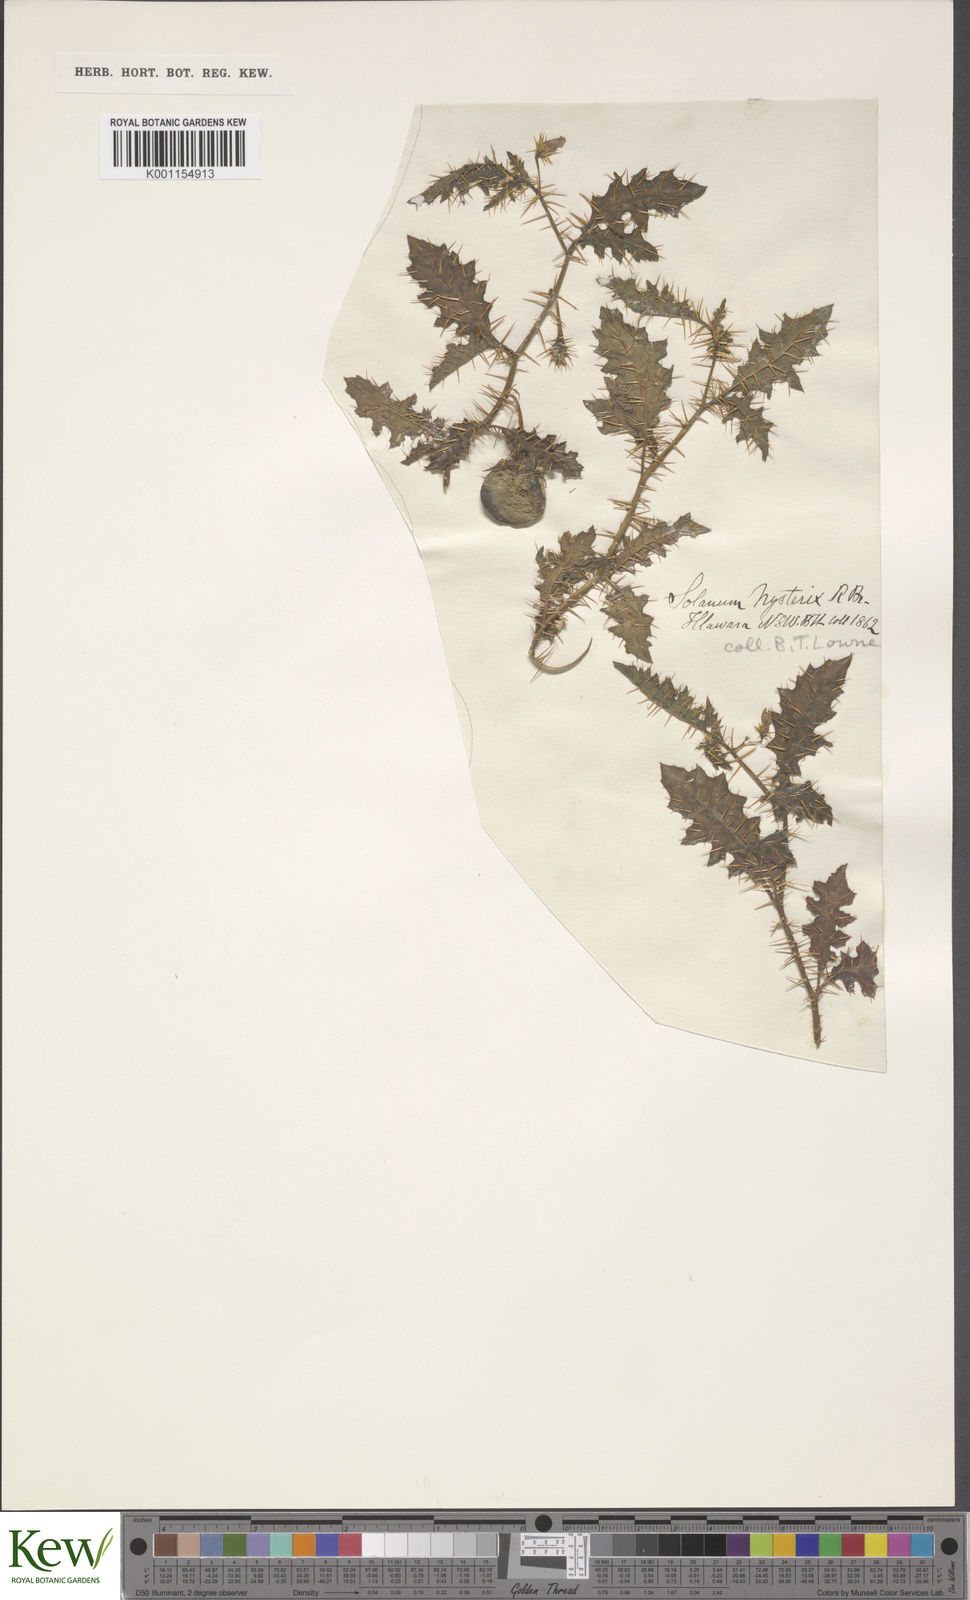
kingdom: Plantae
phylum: Tracheophyta
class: Magnoliopsida
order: Solanales
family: Solanaceae
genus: Solanum
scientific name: Solanum hystrix
